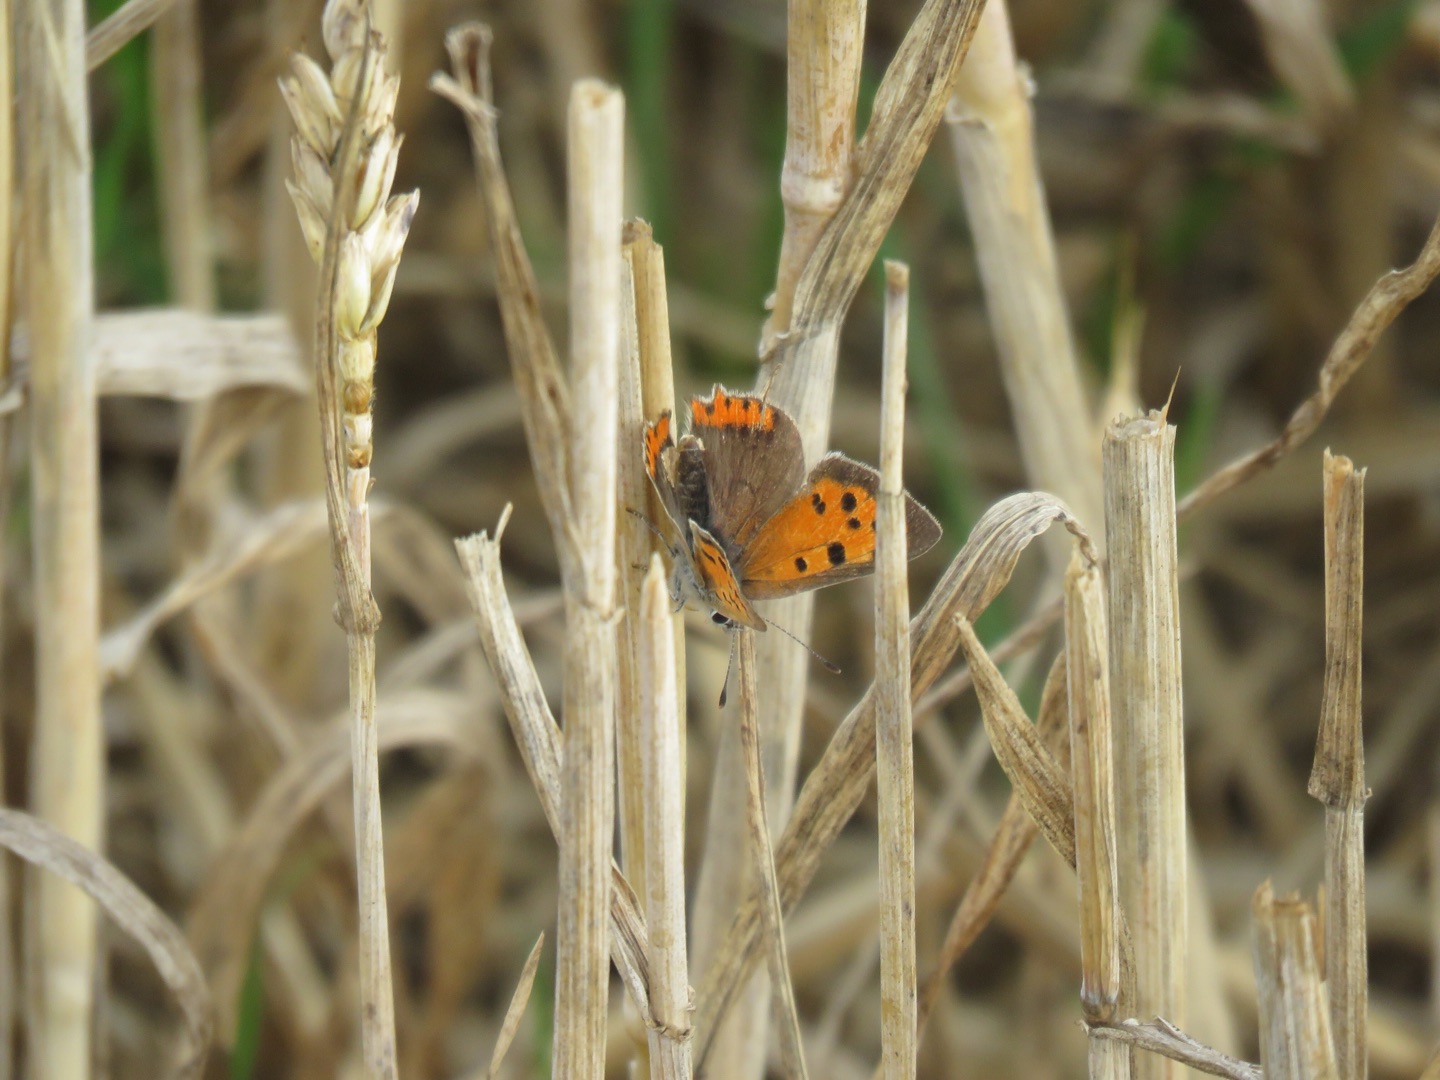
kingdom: Animalia
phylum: Arthropoda
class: Insecta
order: Lepidoptera
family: Lycaenidae
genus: Lycaena
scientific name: Lycaena phlaeas
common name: Lille ildfugl
